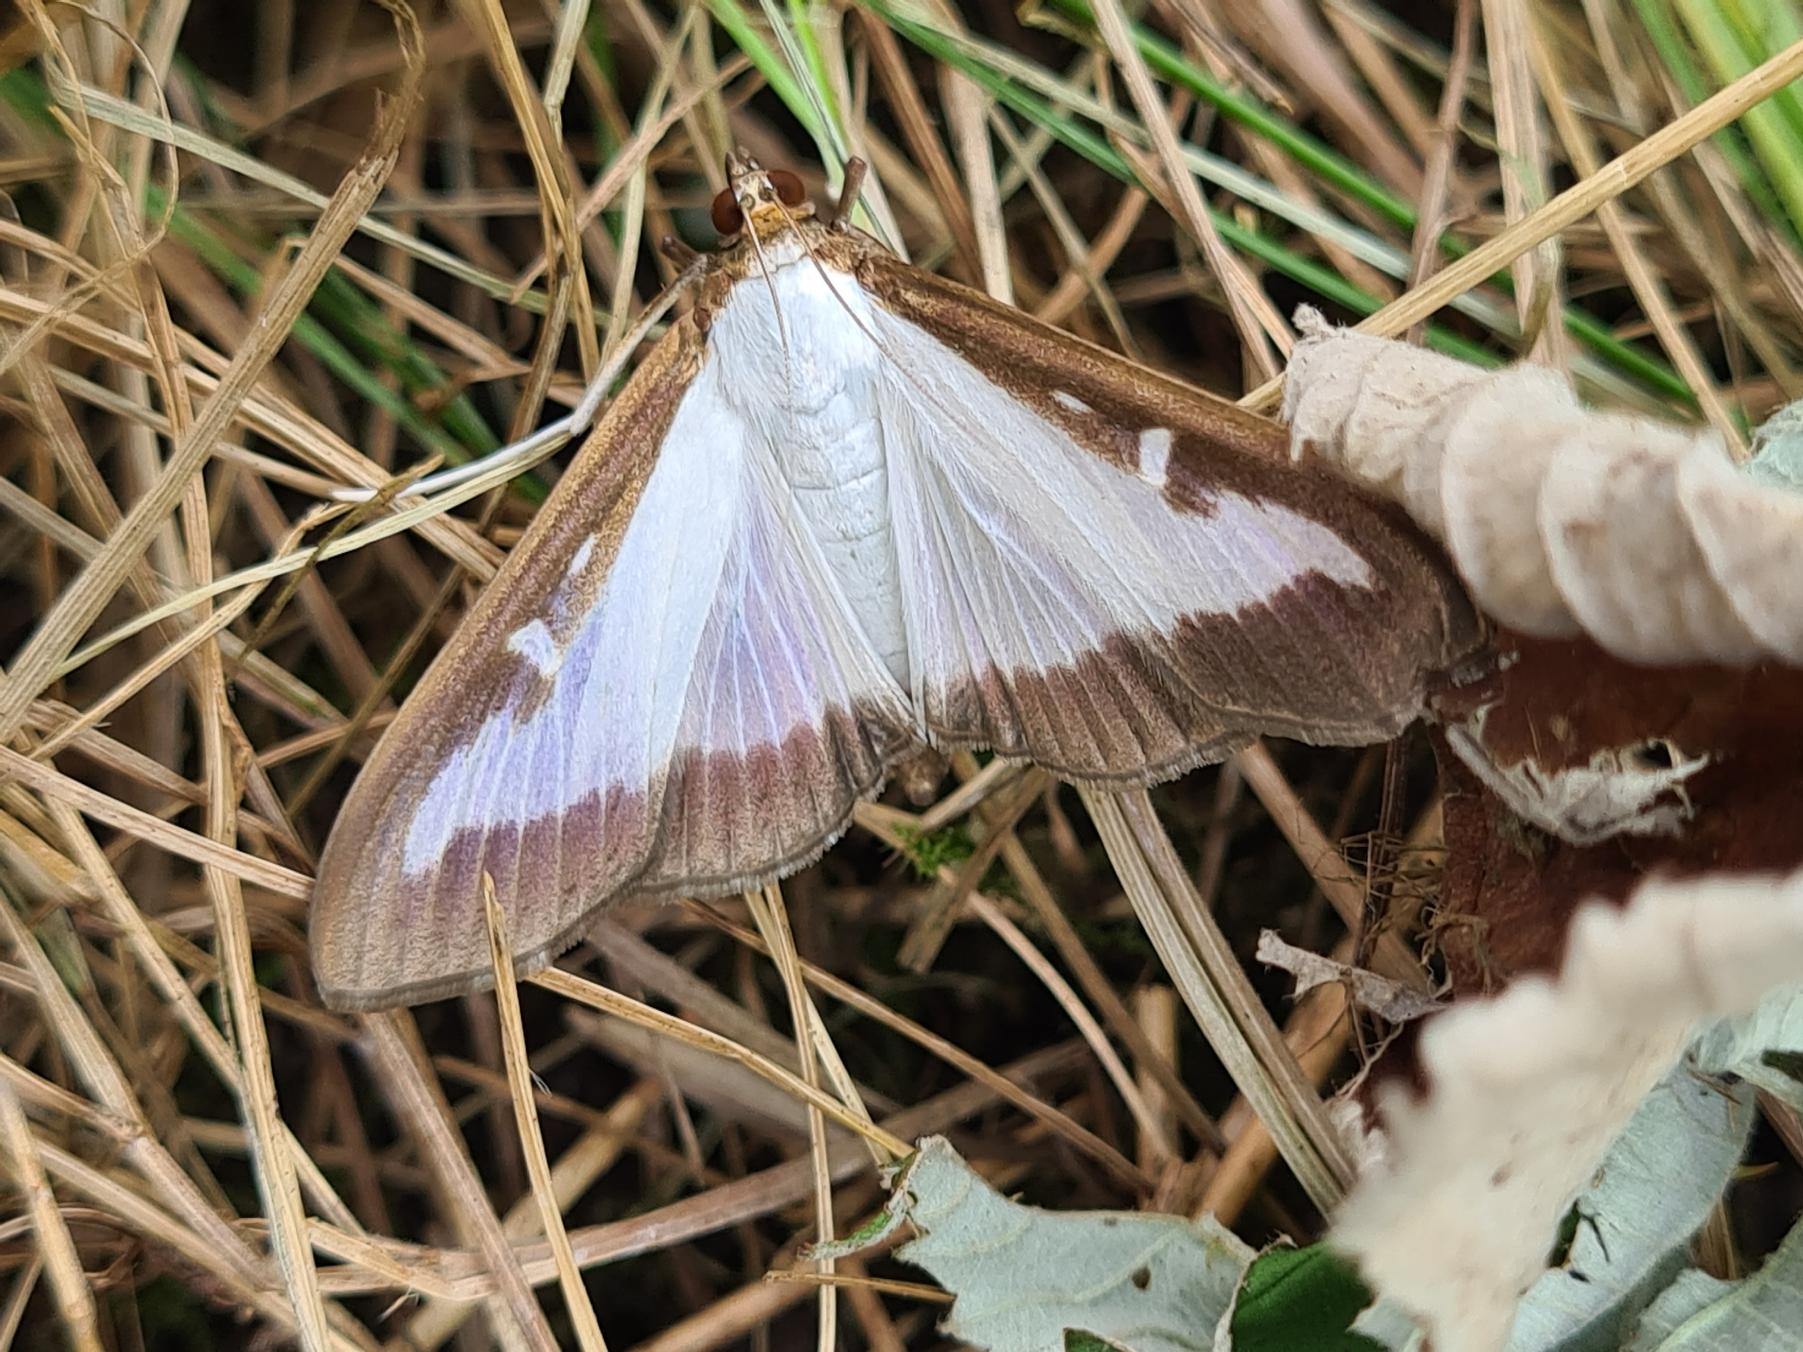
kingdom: Animalia
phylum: Arthropoda
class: Insecta
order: Lepidoptera
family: Crambidae
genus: Cydalima
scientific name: Cydalima perspectalis
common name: Buksbomhalvmøl
